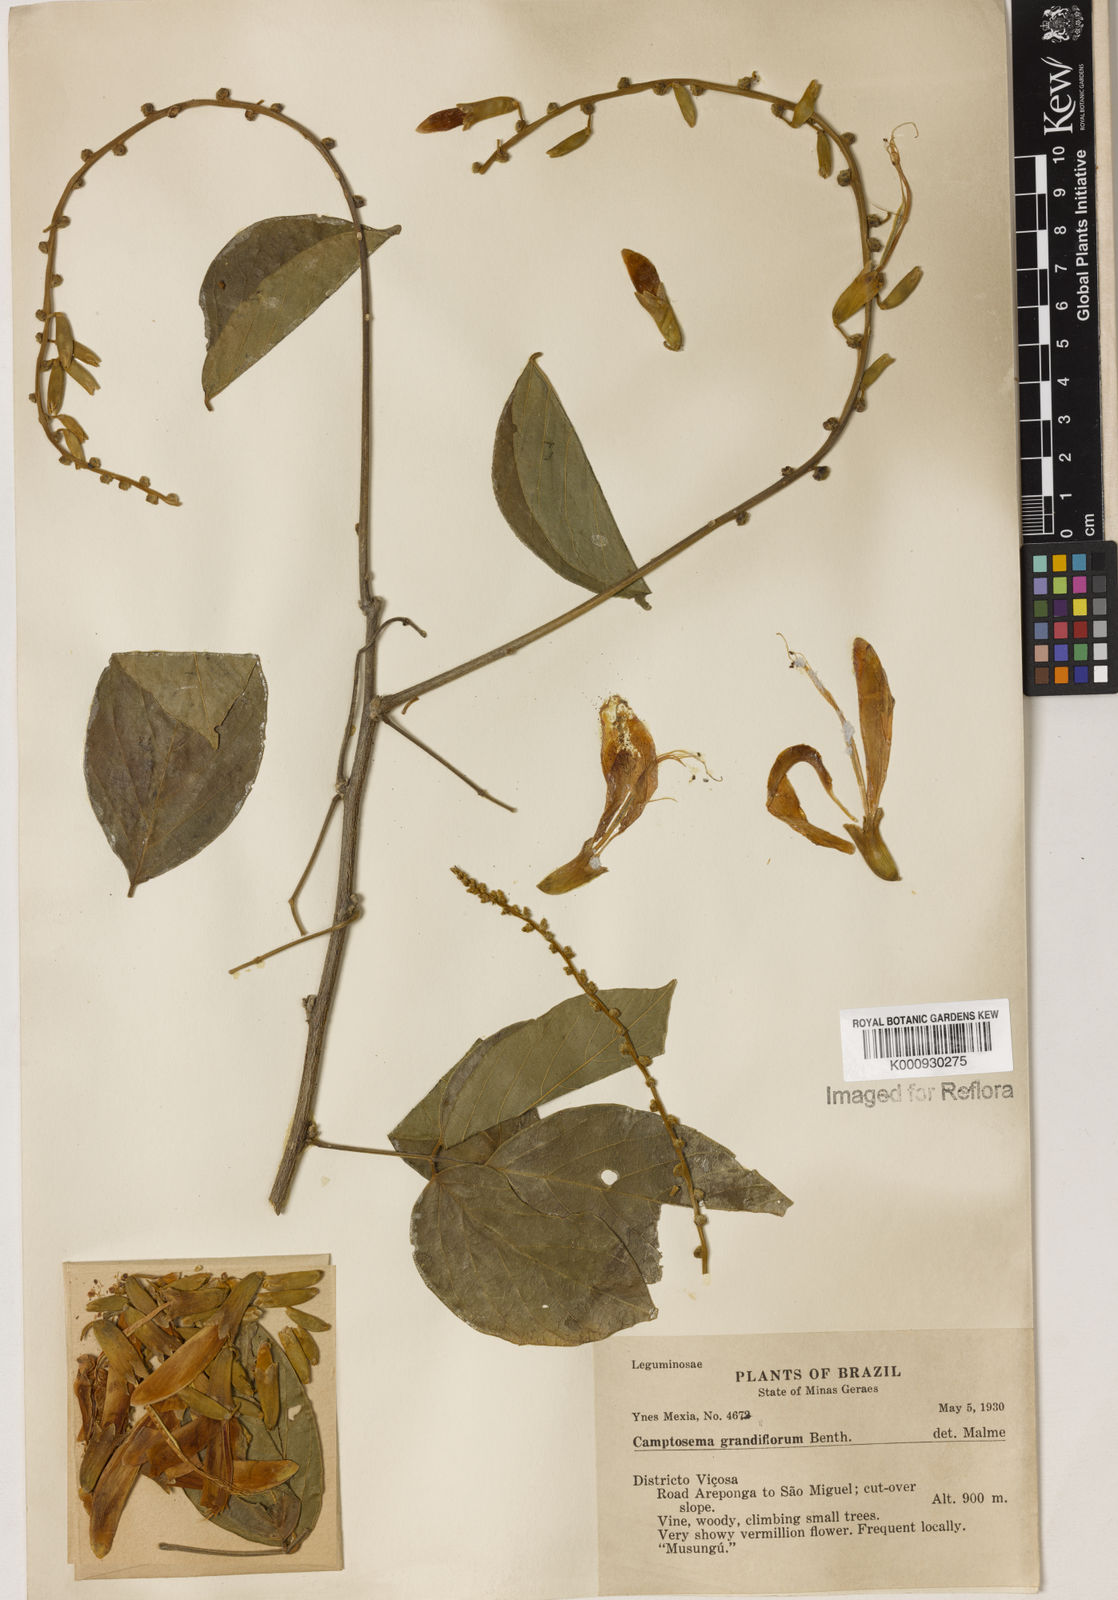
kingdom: Plantae
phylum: Tracheophyta
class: Magnoliopsida
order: Fabales
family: Fabaceae
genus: Camptosema
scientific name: Camptosema spectabile
